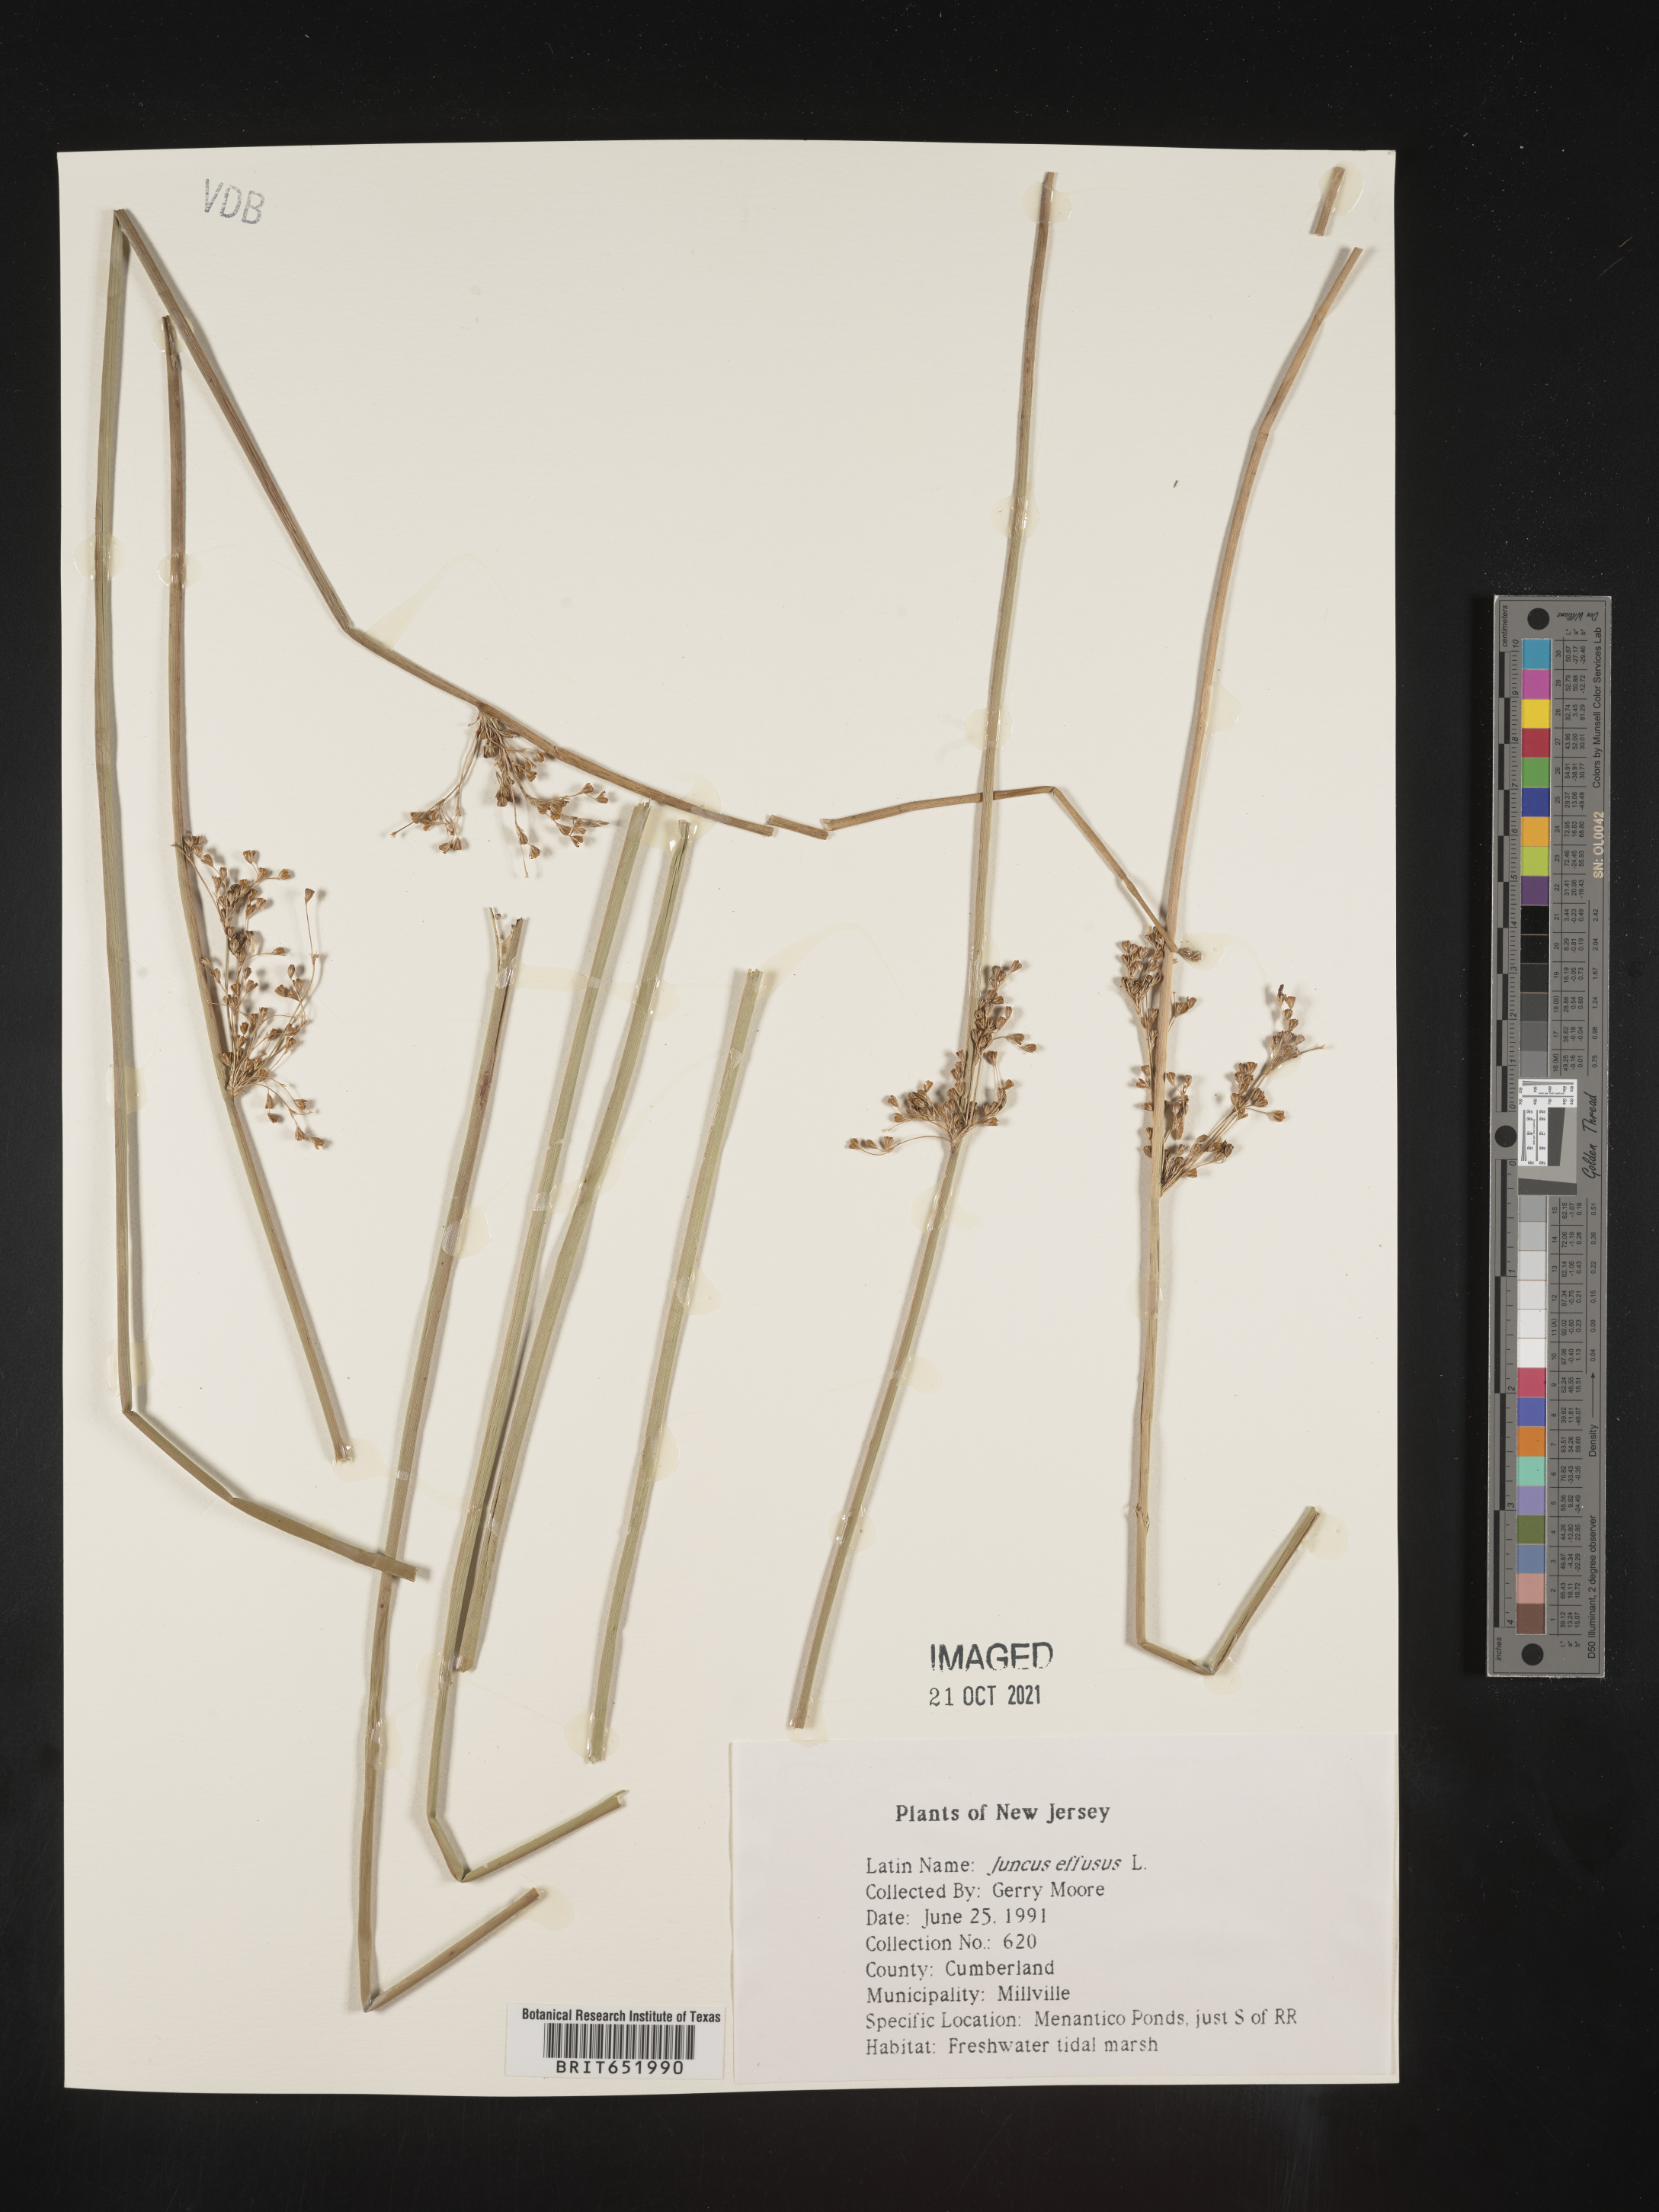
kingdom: Plantae
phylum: Tracheophyta
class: Liliopsida
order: Poales
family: Juncaceae
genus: Juncus
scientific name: Juncus effusus
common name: Soft rush
